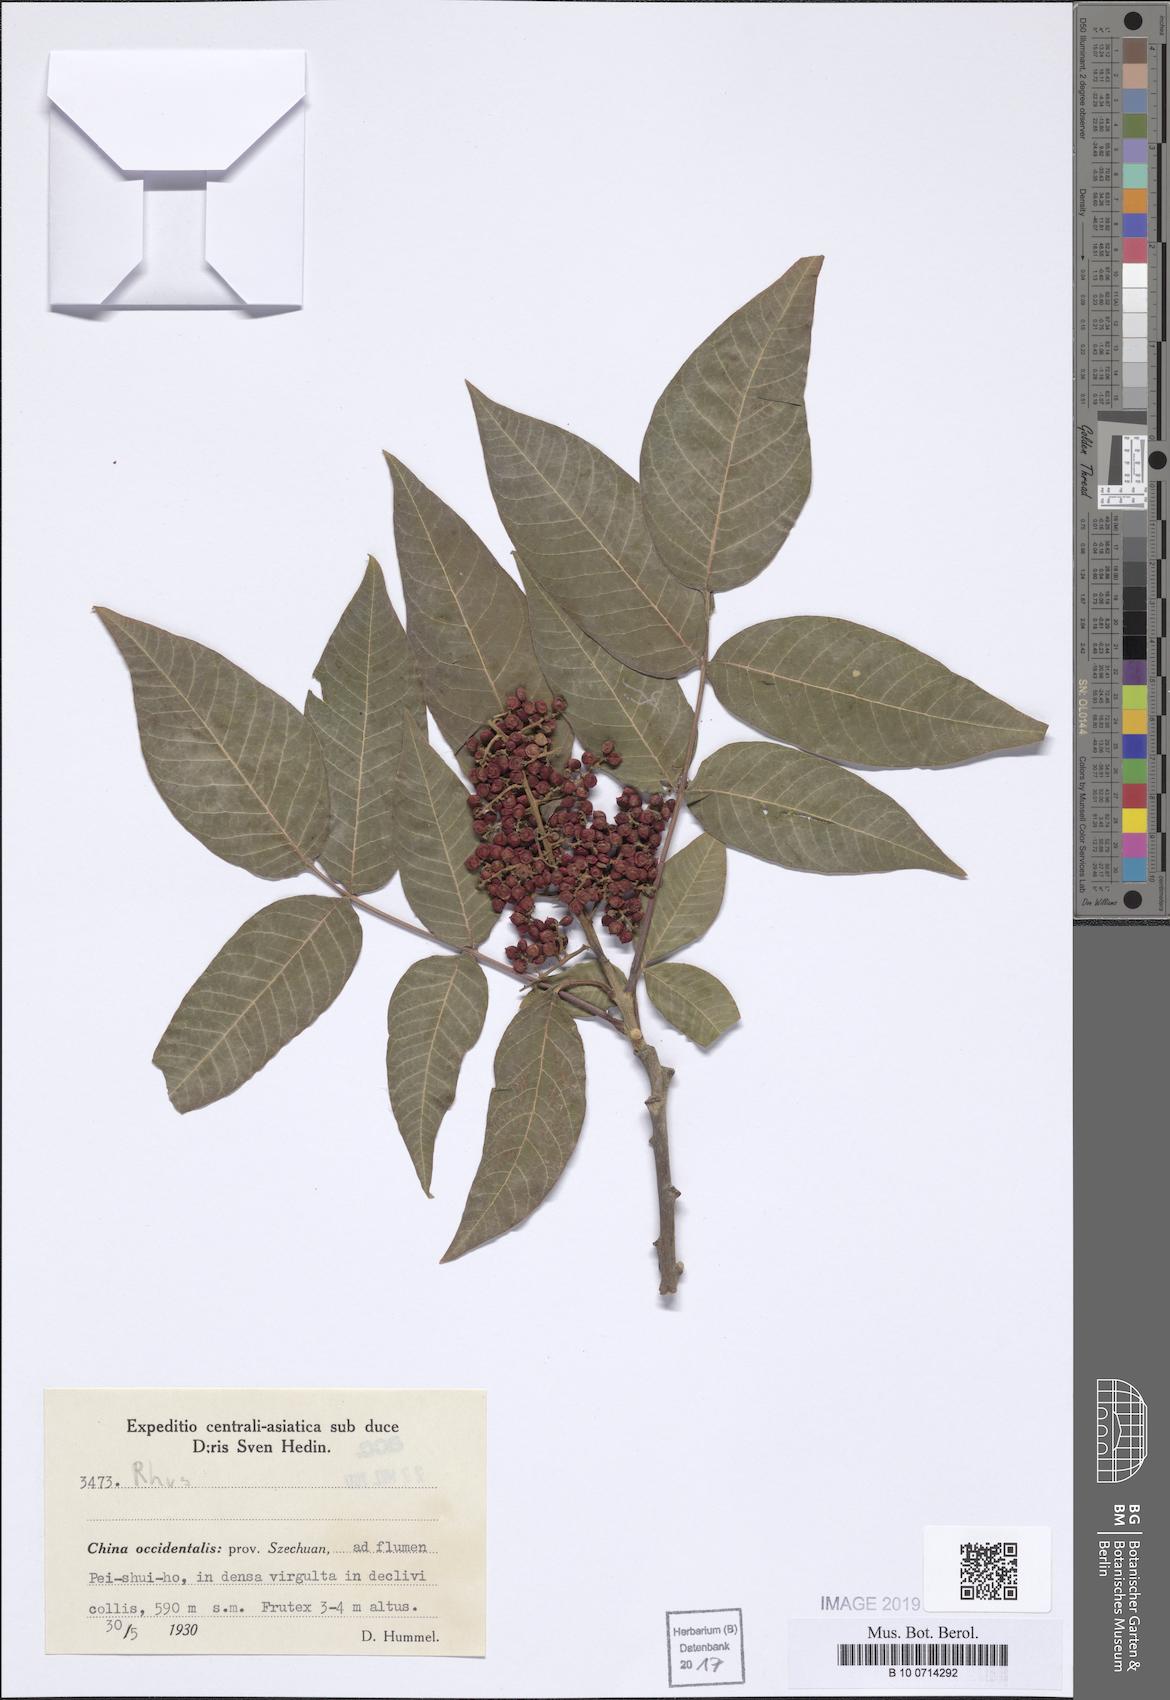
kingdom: Plantae
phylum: Tracheophyta
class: Magnoliopsida
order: Sapindales
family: Anacardiaceae
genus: Rhus
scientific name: Rhus
